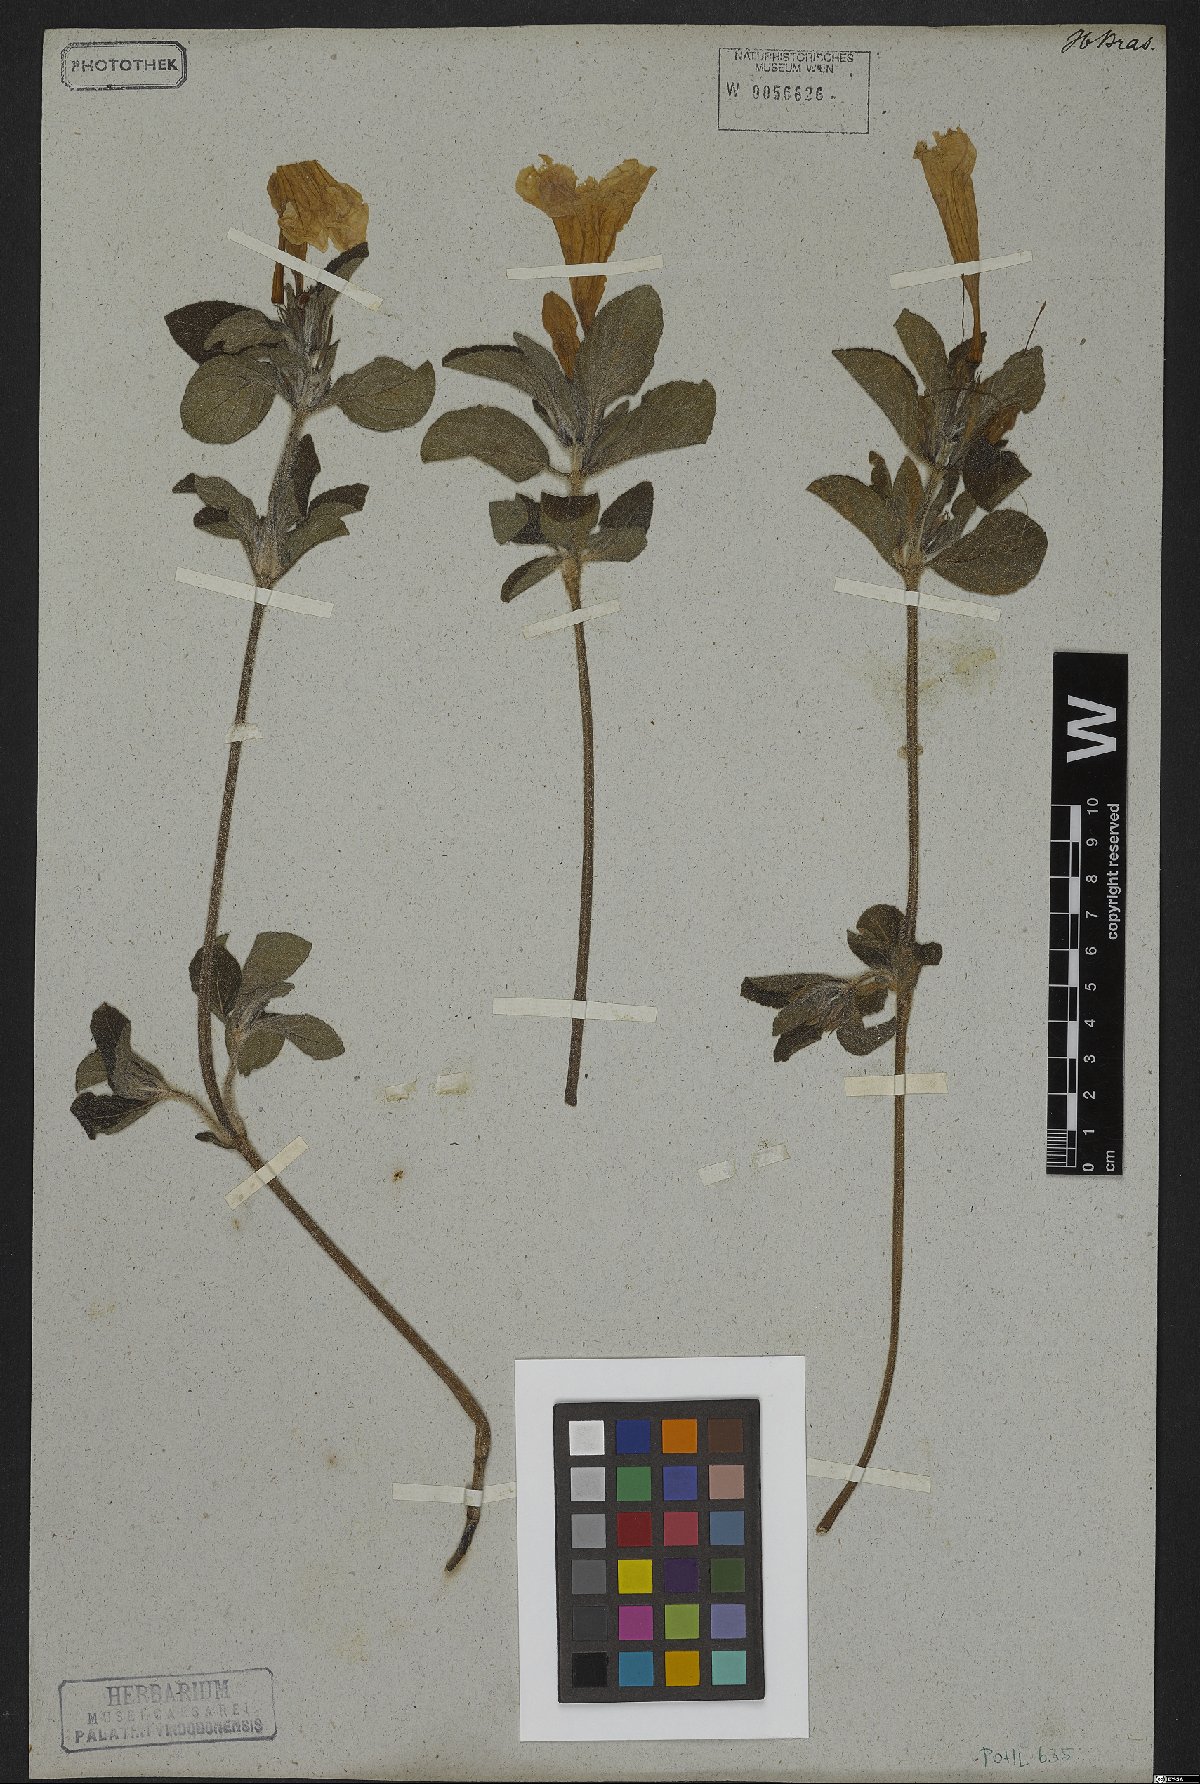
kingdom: Plantae
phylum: Tracheophyta
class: Magnoliopsida
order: Lamiales
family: Acanthaceae
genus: Ruellia
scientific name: Ruellia dissitifolia
